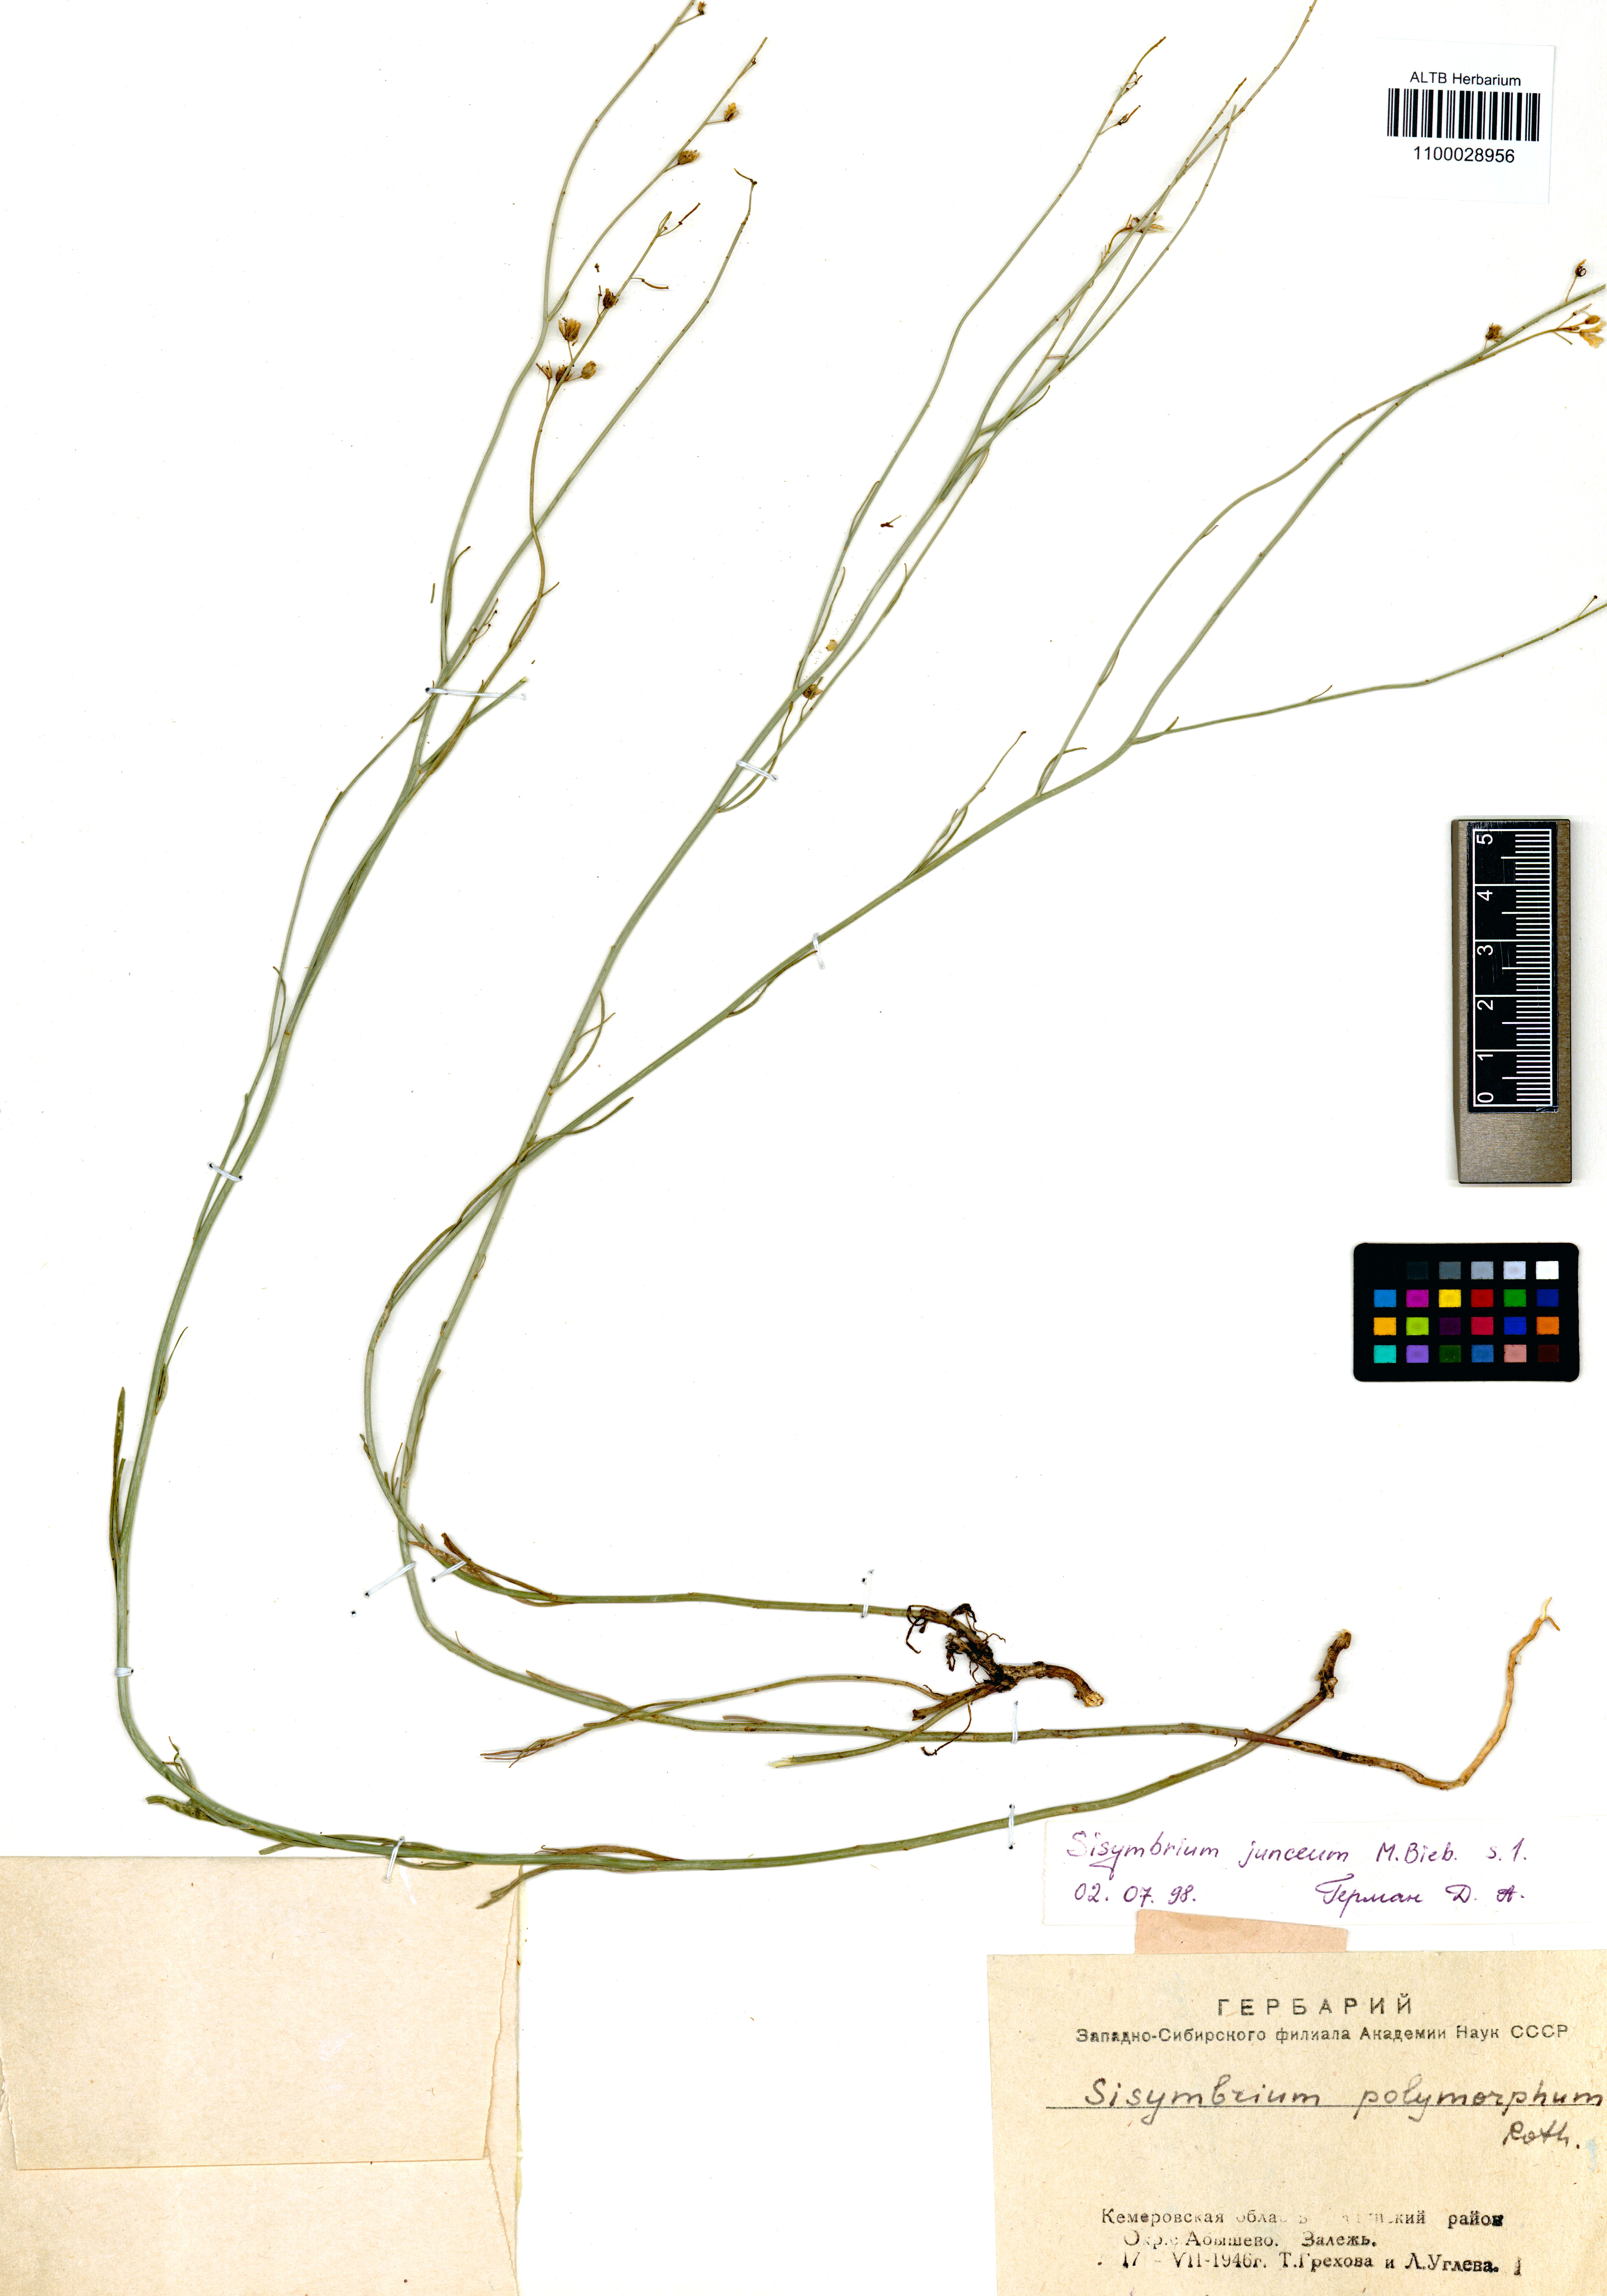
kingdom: Plantae
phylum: Tracheophyta
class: Magnoliopsida
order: Brassicales
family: Brassicaceae
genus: Sisymbrium
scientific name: Sisymbrium polymorphum
